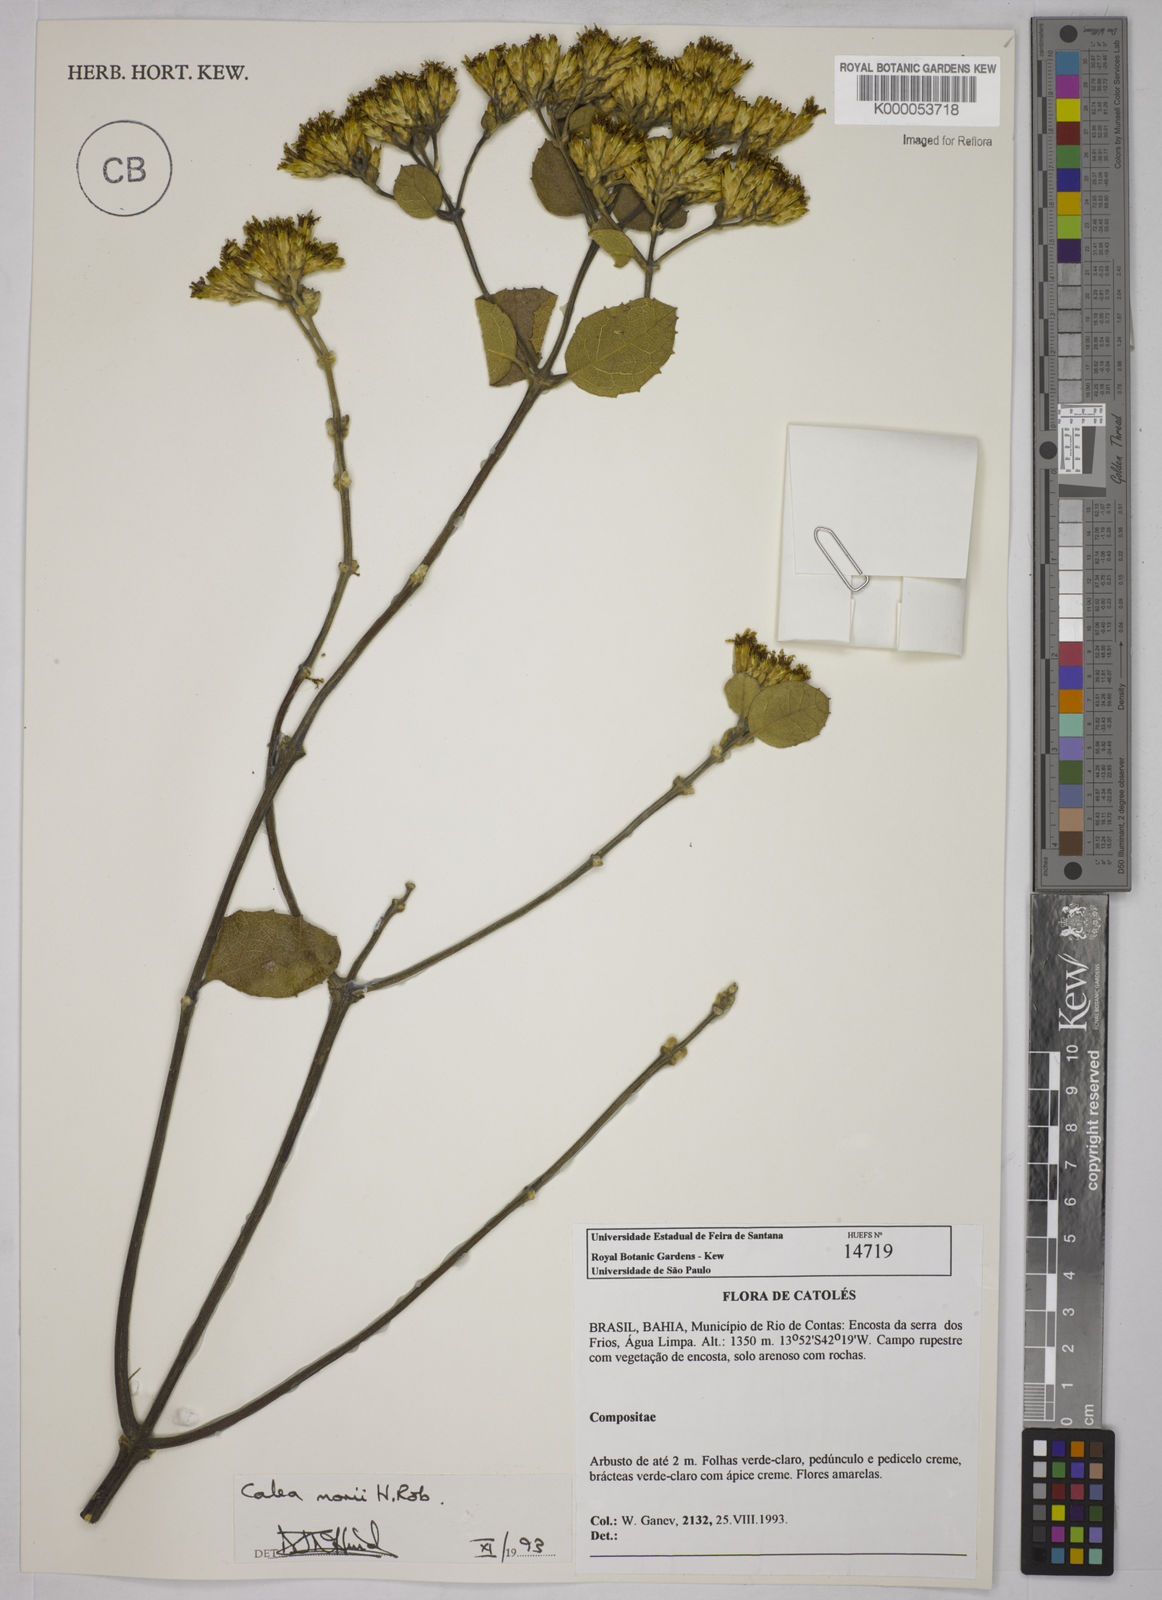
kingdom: Plantae
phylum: Tracheophyta
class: Magnoliopsida
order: Asterales
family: Asteraceae
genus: Calea
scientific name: Calea morii
